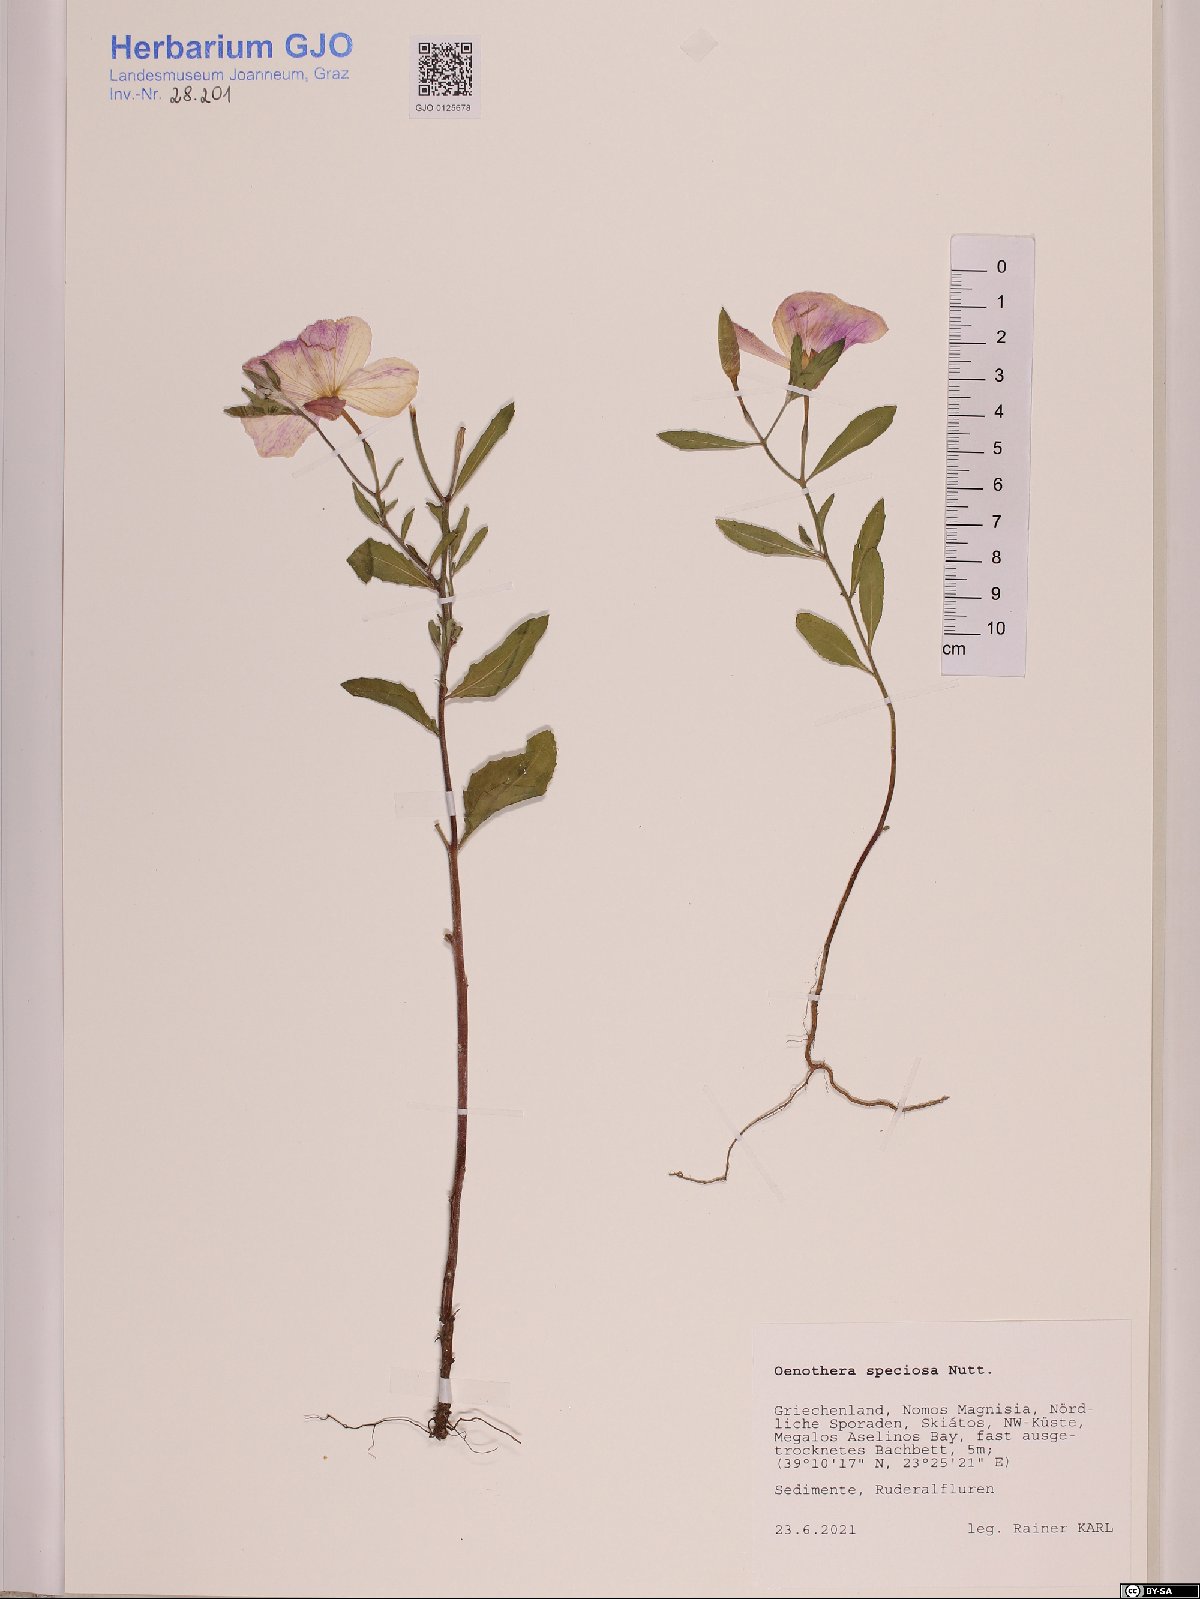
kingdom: Plantae
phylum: Tracheophyta
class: Magnoliopsida
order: Myrtales
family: Onagraceae
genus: Oenothera
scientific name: Oenothera speciosa
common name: White evening-primrose
